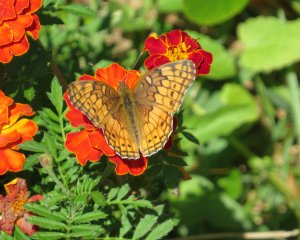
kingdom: Animalia
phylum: Arthropoda
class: Insecta
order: Lepidoptera
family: Nymphalidae
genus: Euptoieta
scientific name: Euptoieta claudia
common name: Variegated Fritillary
